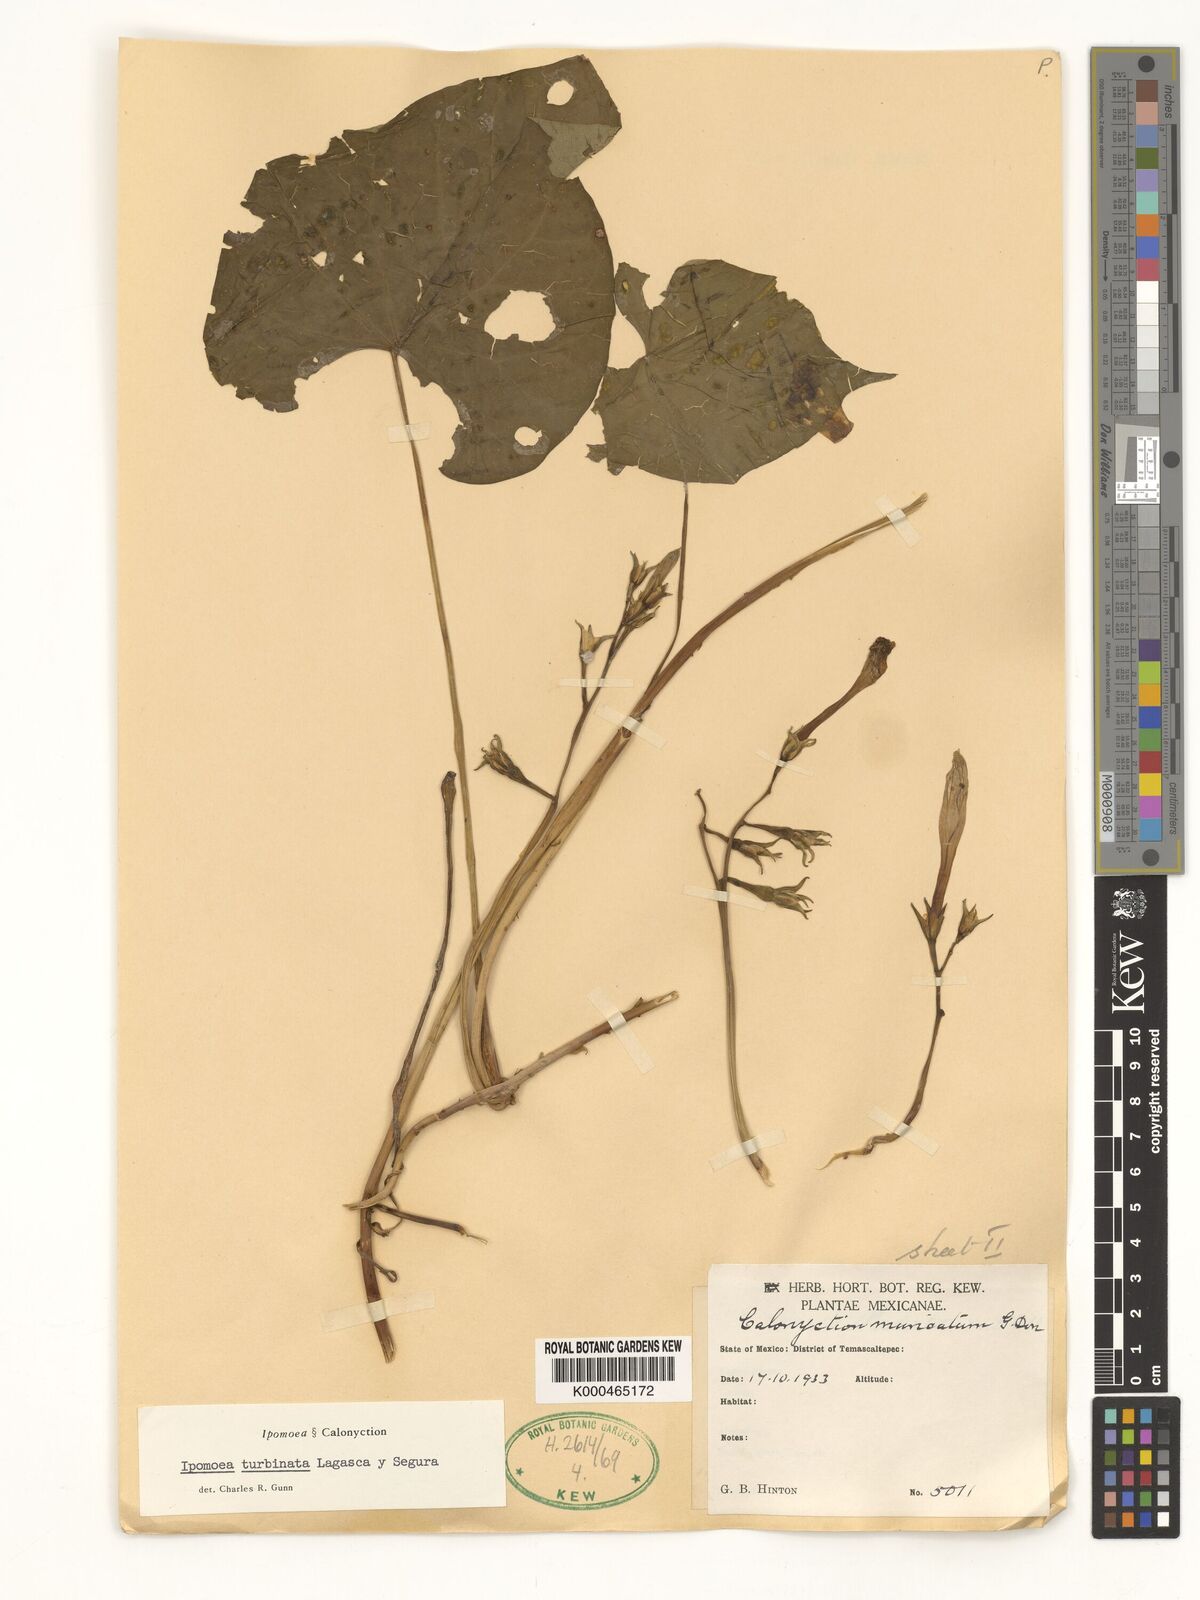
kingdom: Plantae
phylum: Tracheophyta
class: Magnoliopsida
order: Solanales
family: Convolvulaceae
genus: Ipomoea
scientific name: Ipomoea muricata
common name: Lilac-bell
